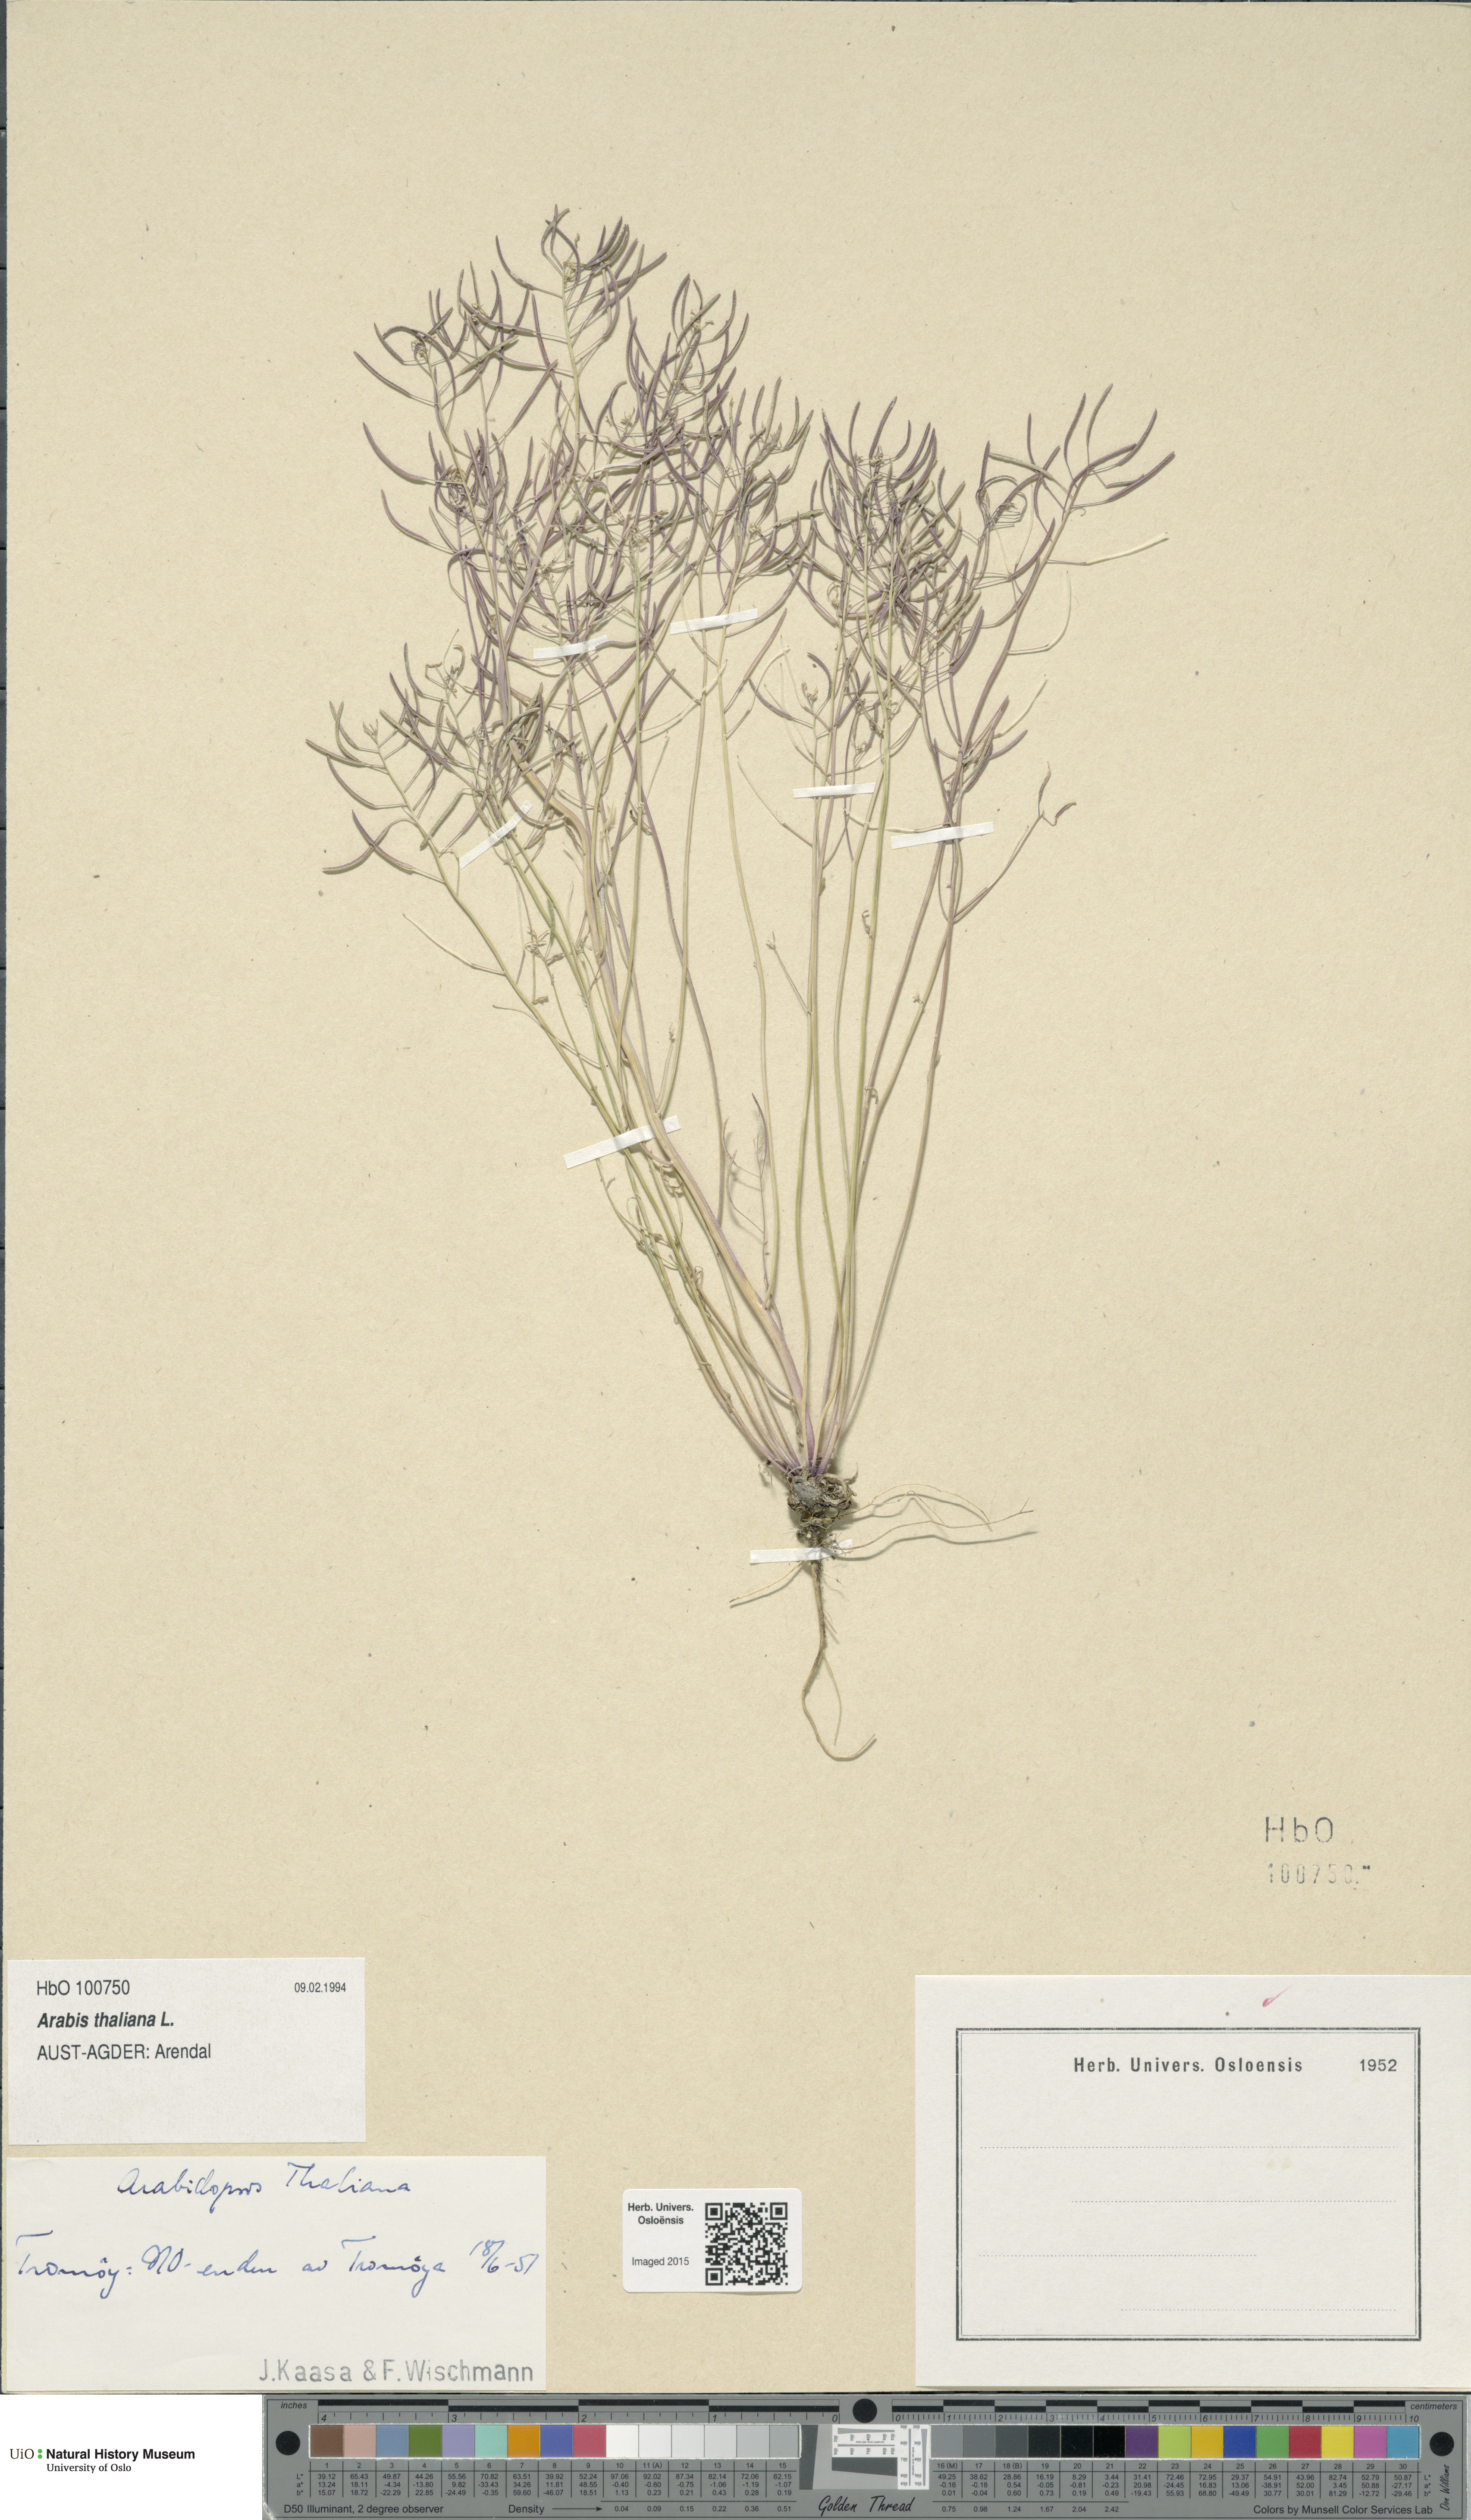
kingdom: Plantae
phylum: Tracheophyta
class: Magnoliopsida
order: Brassicales
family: Brassicaceae
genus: Arabidopsis
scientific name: Arabidopsis thaliana
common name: Thale cress
